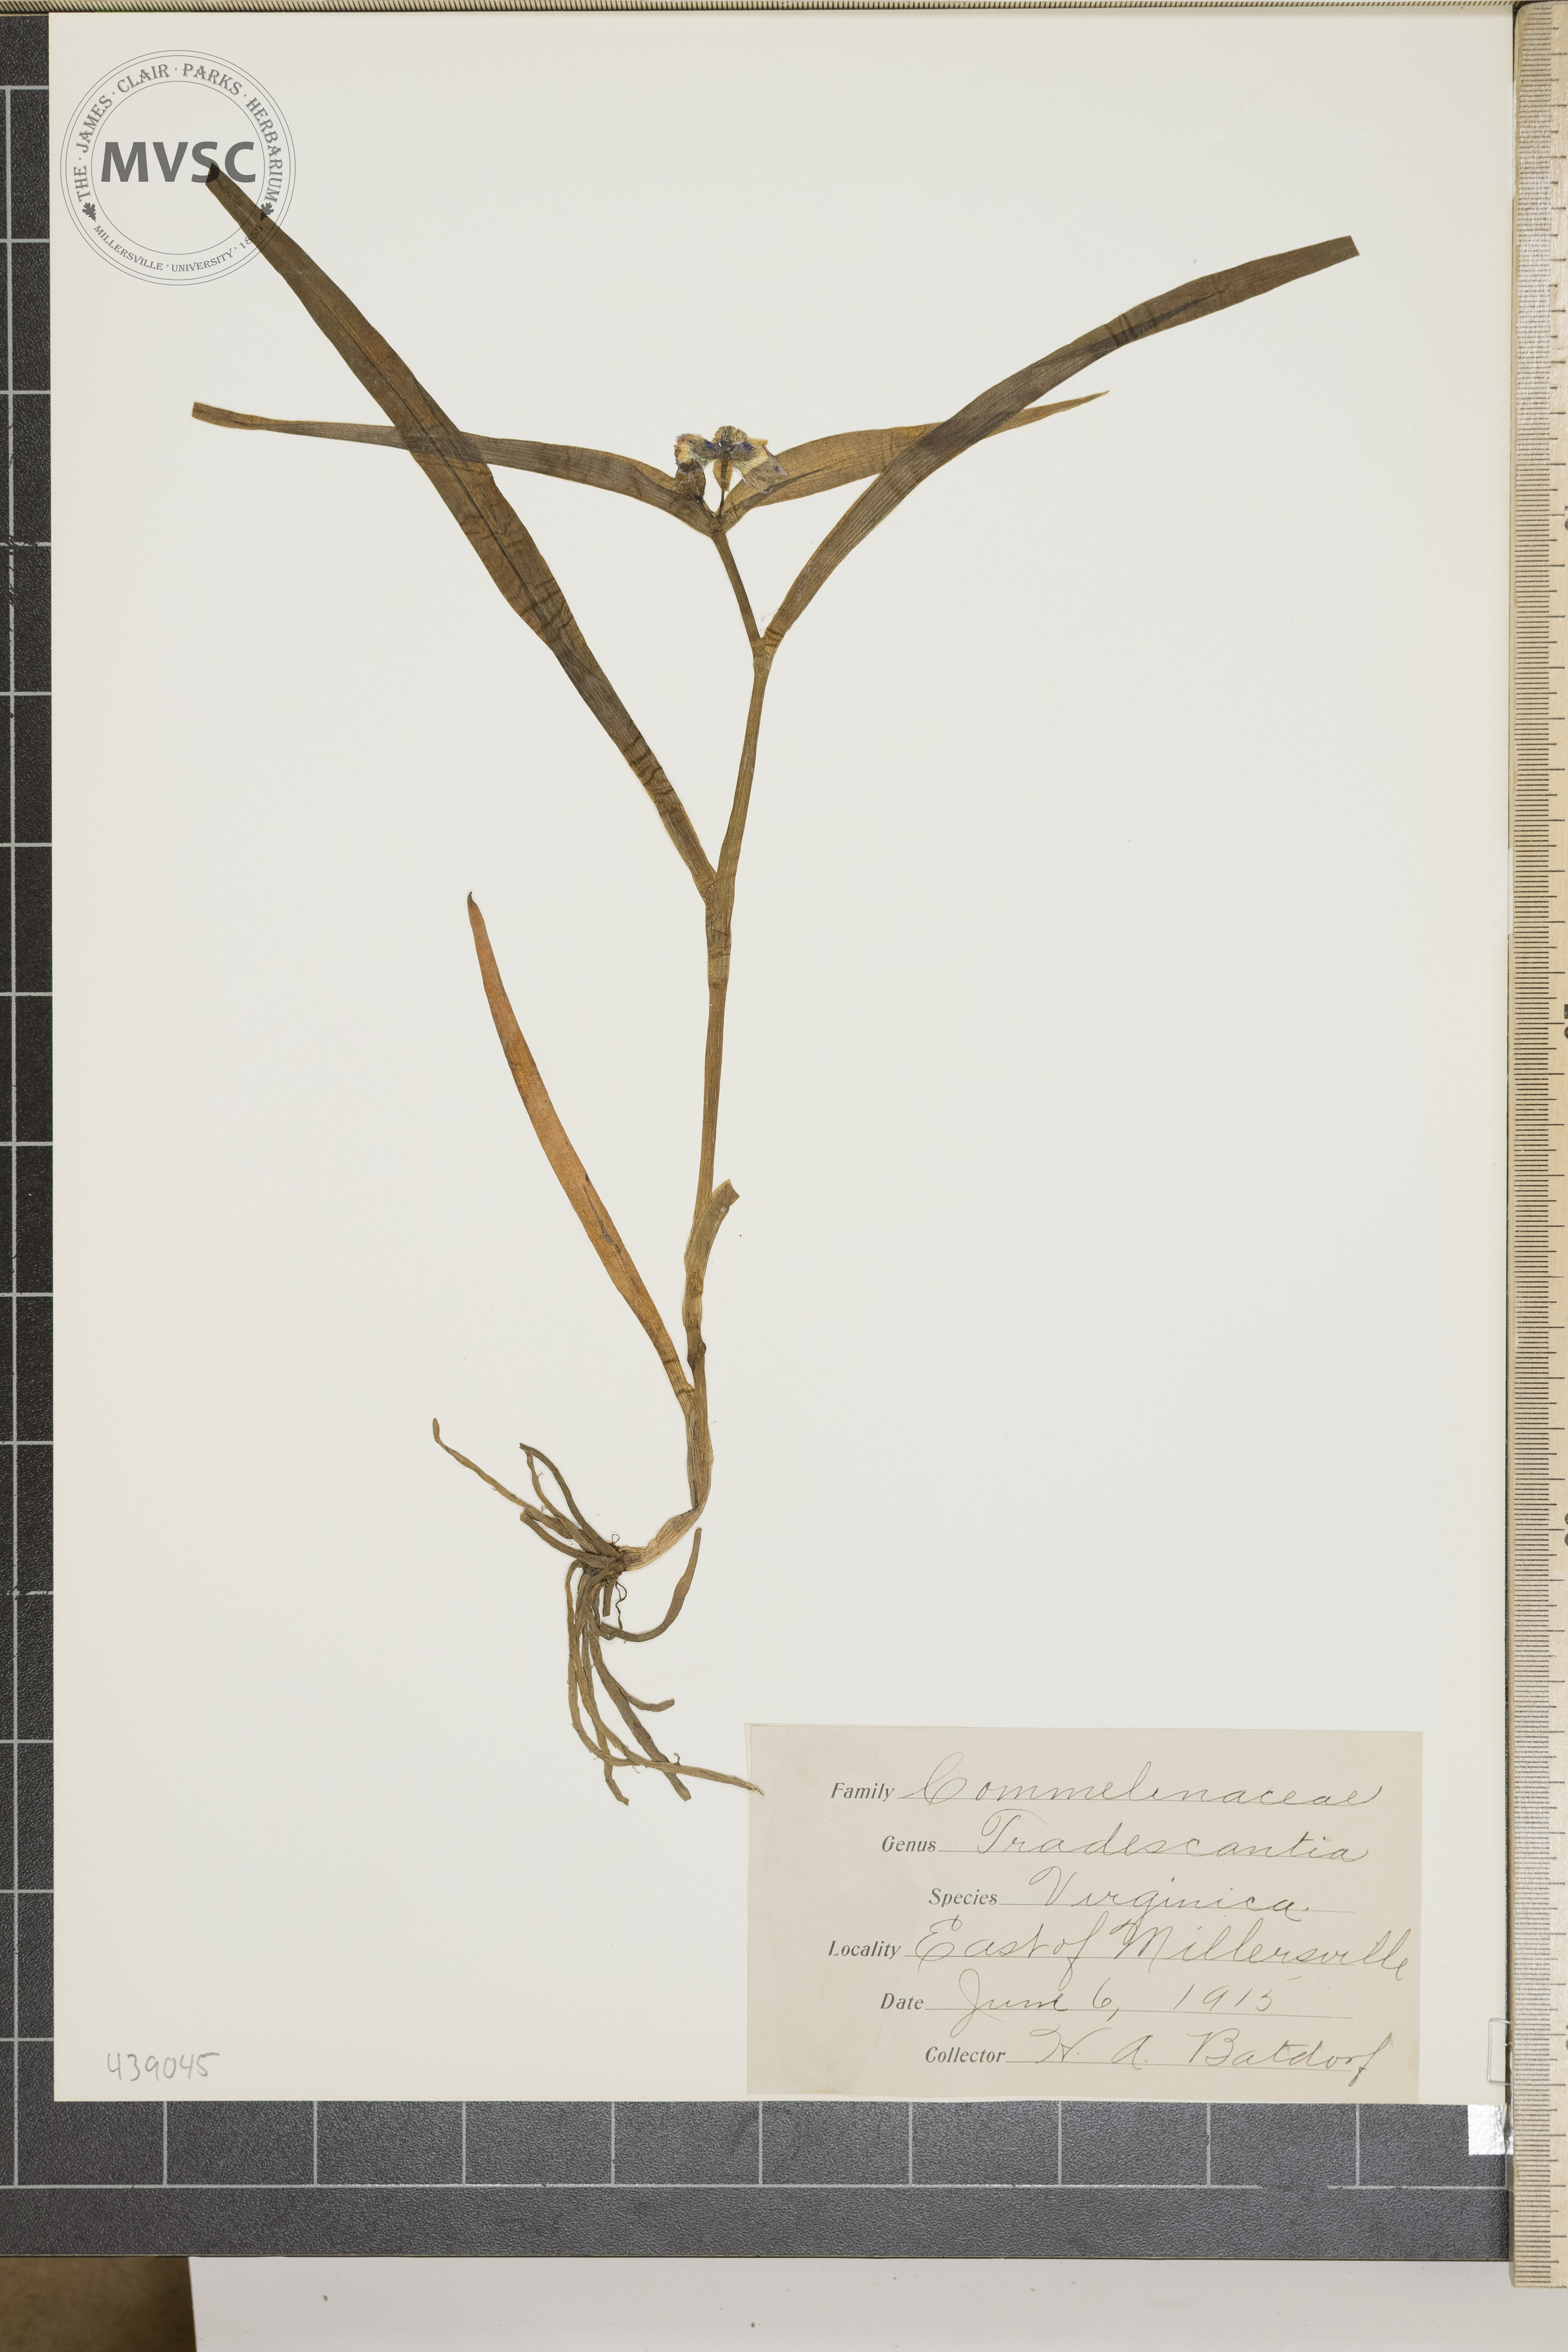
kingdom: Plantae
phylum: Tracheophyta
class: Liliopsida
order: Commelinales
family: Commelinaceae
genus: Tradescantia
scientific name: Tradescantia virginiana
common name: Spiderwort
